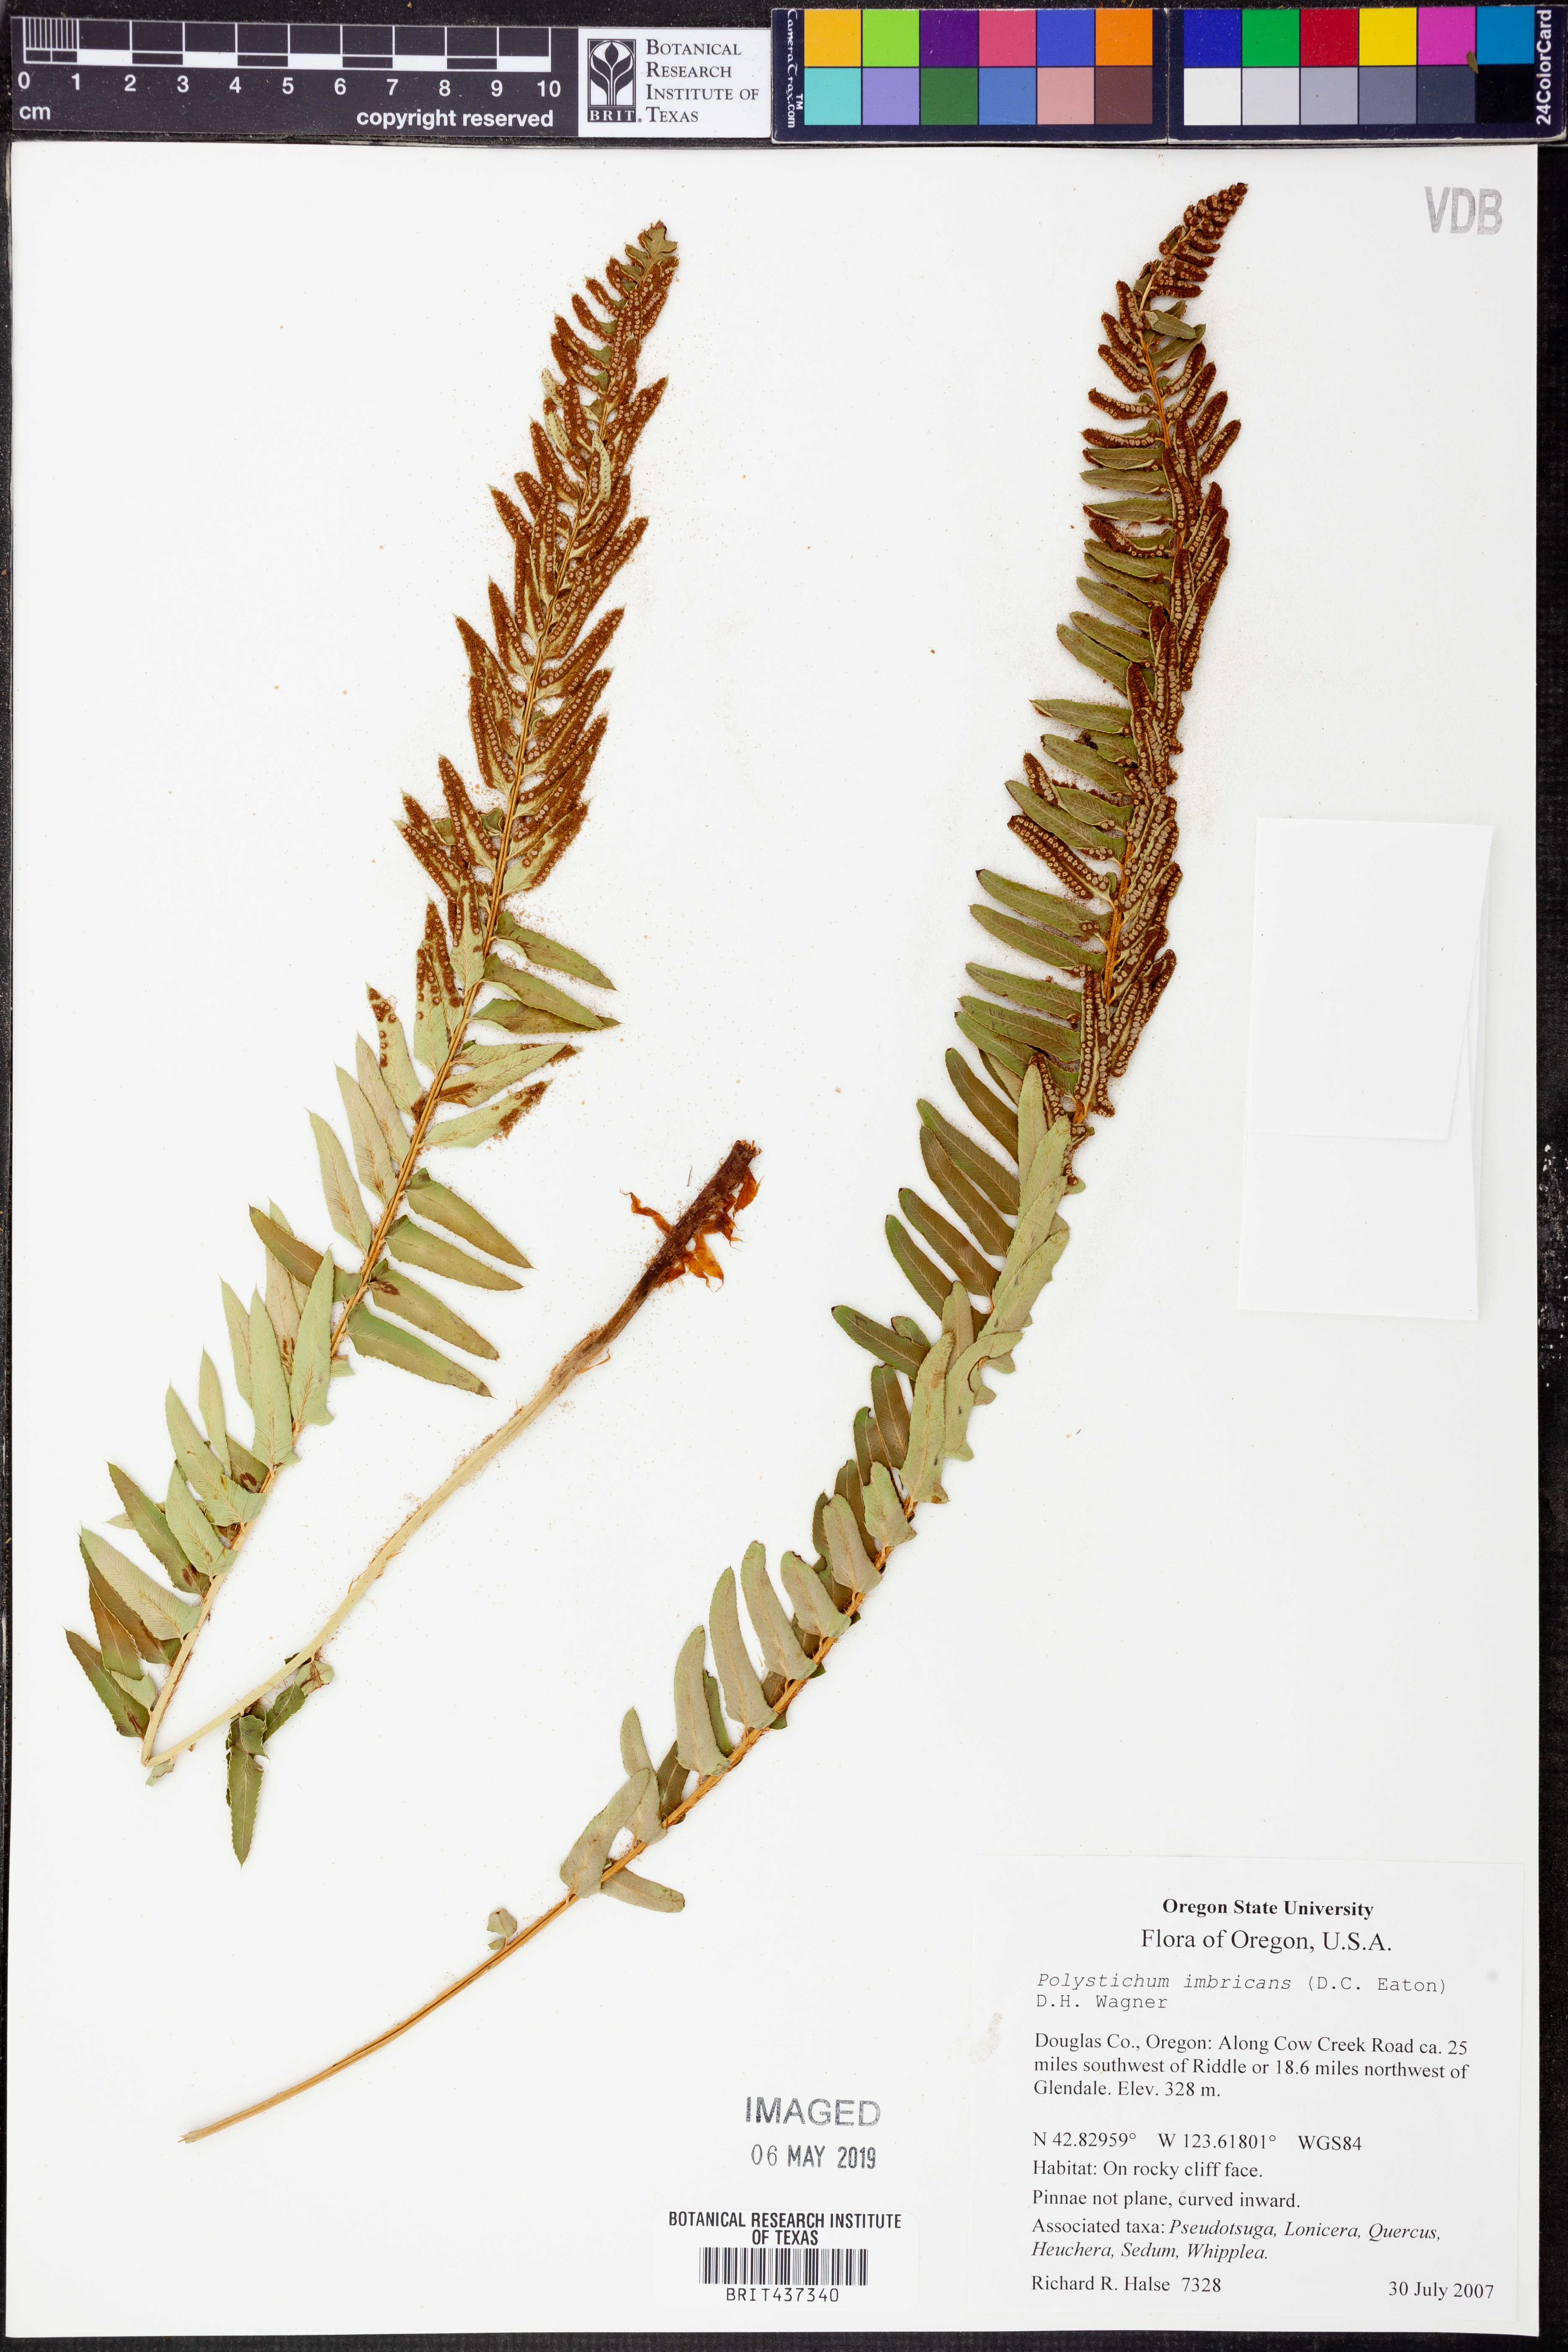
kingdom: Plantae
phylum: Tracheophyta
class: Polypodiopsida
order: Polypodiales
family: Dryopteridaceae
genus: Polystichum
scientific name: Polystichum imbricans
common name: Dwarf western sword fern
